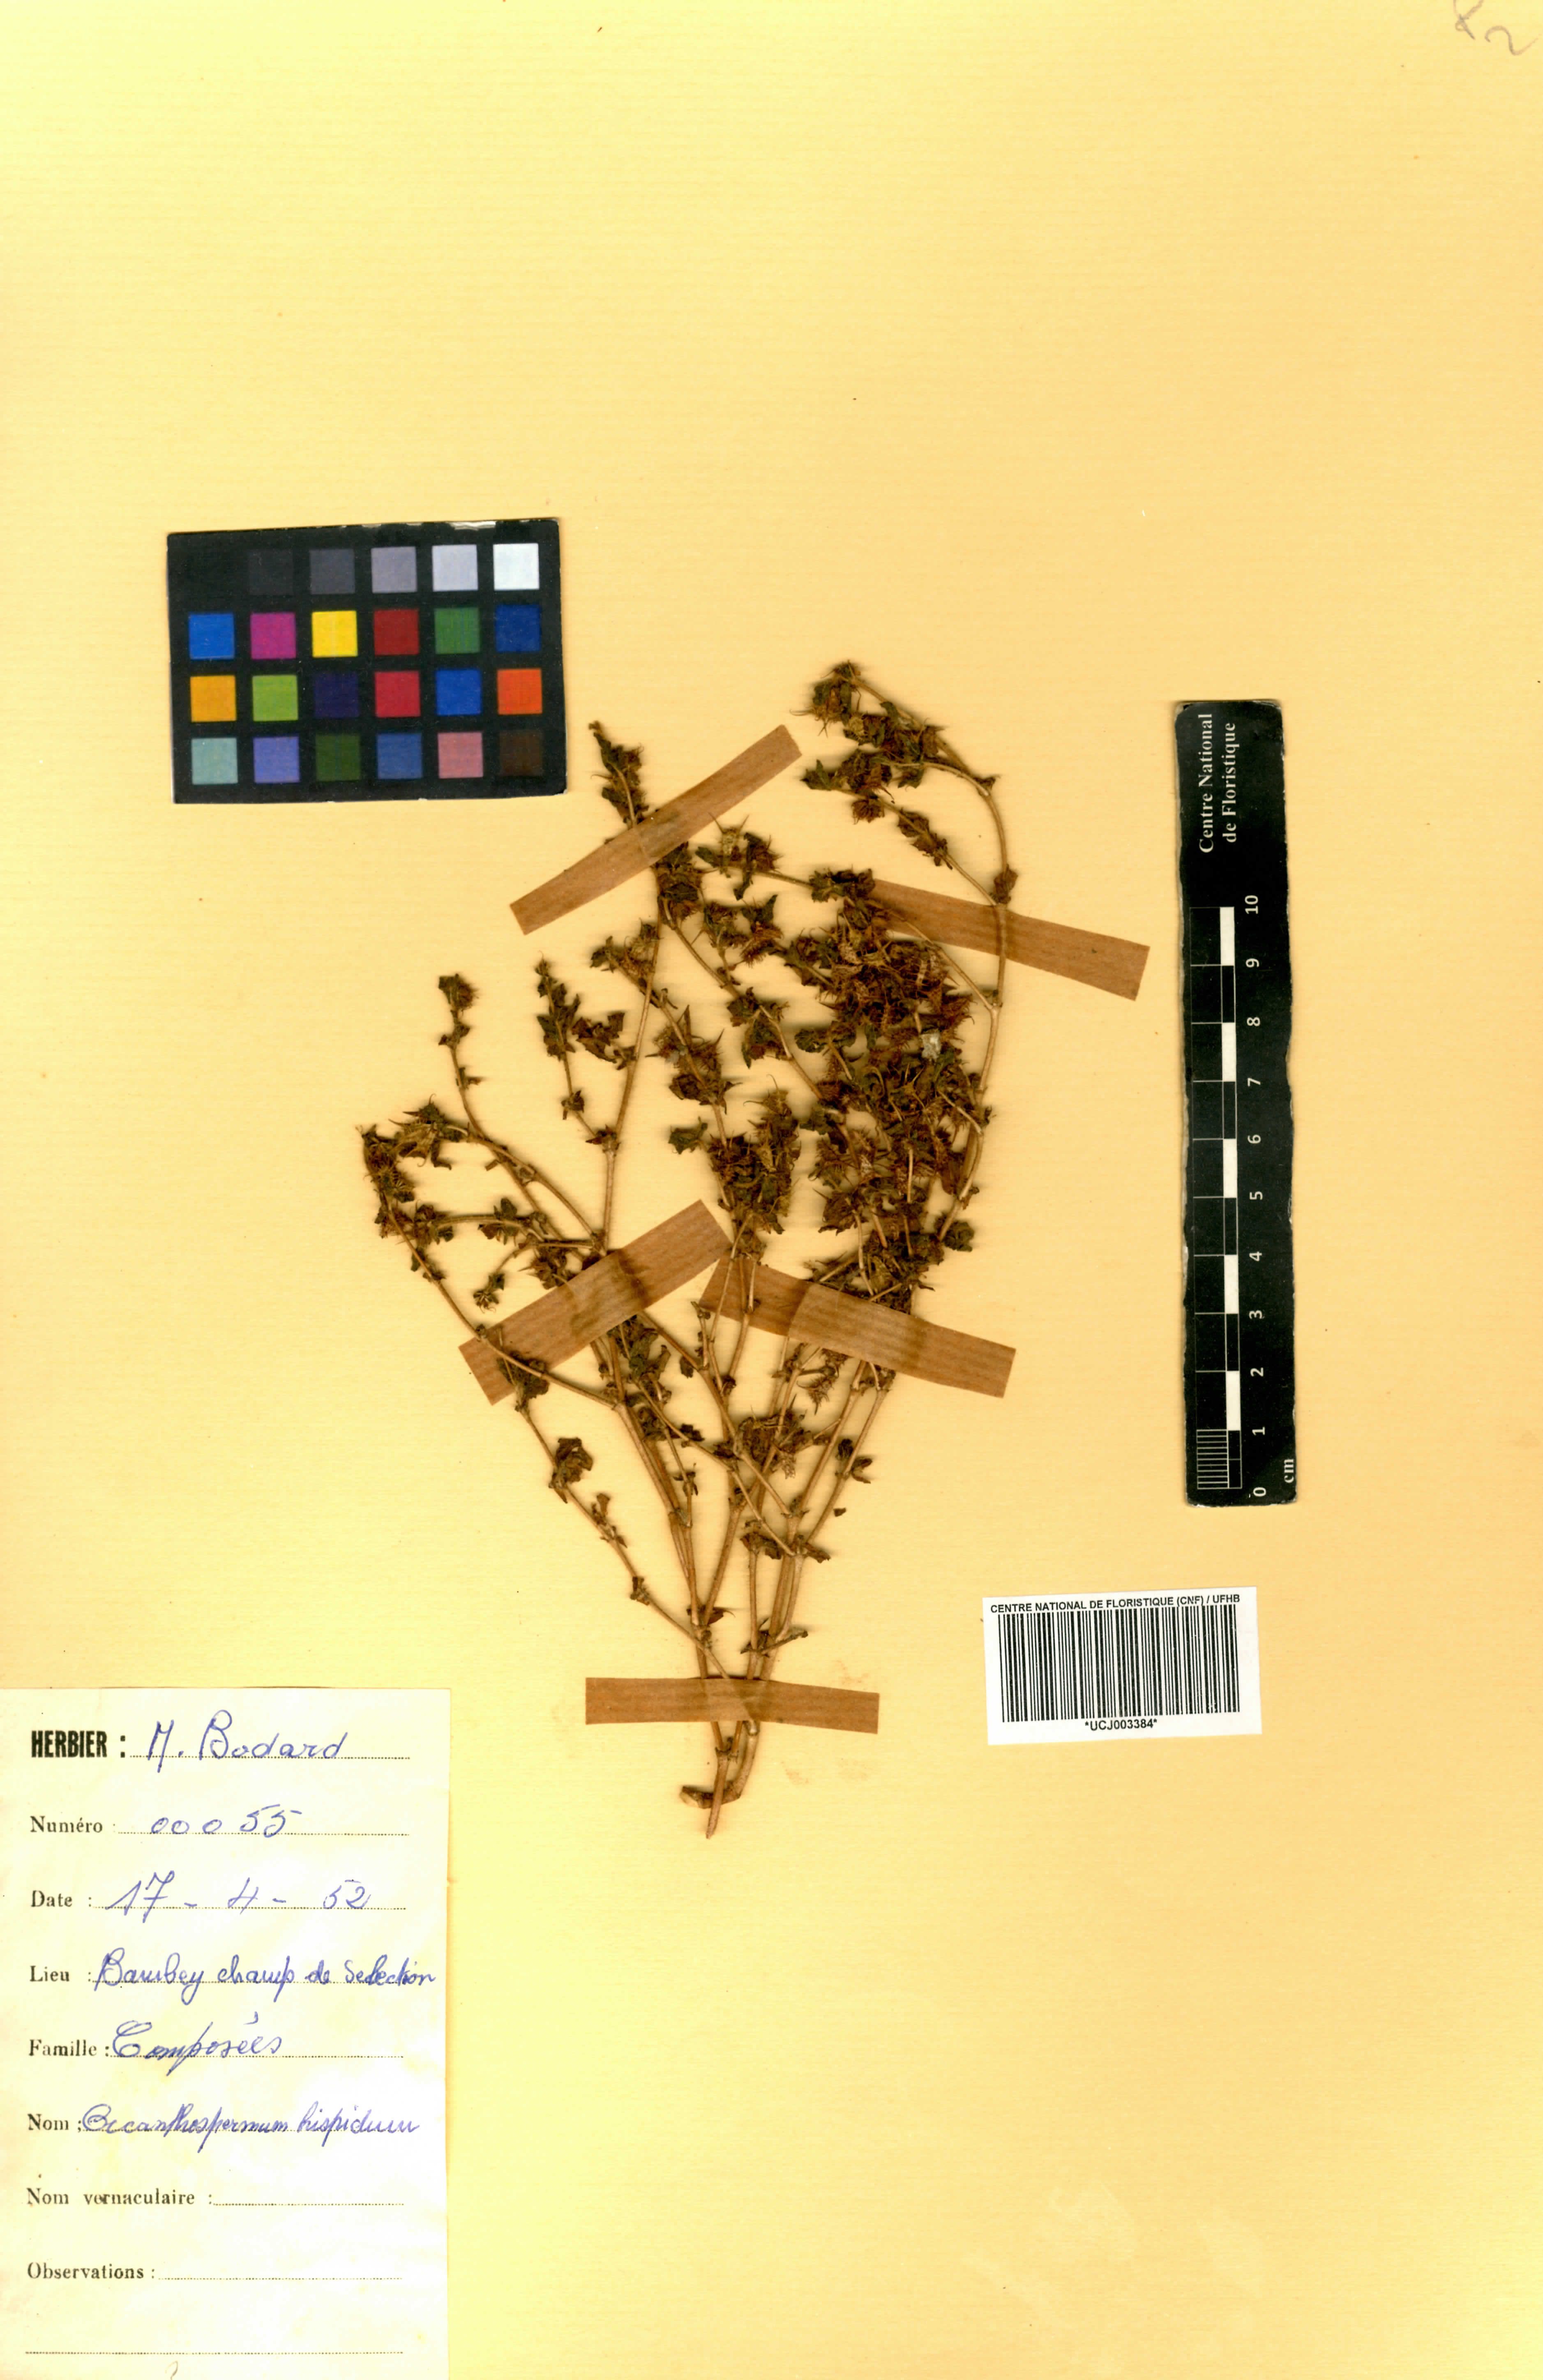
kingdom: Plantae
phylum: Tracheophyta
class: Magnoliopsida
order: Asterales
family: Asteraceae
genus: Acanthospermum
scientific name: Acanthospermum hispidum
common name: Hispid starbur
